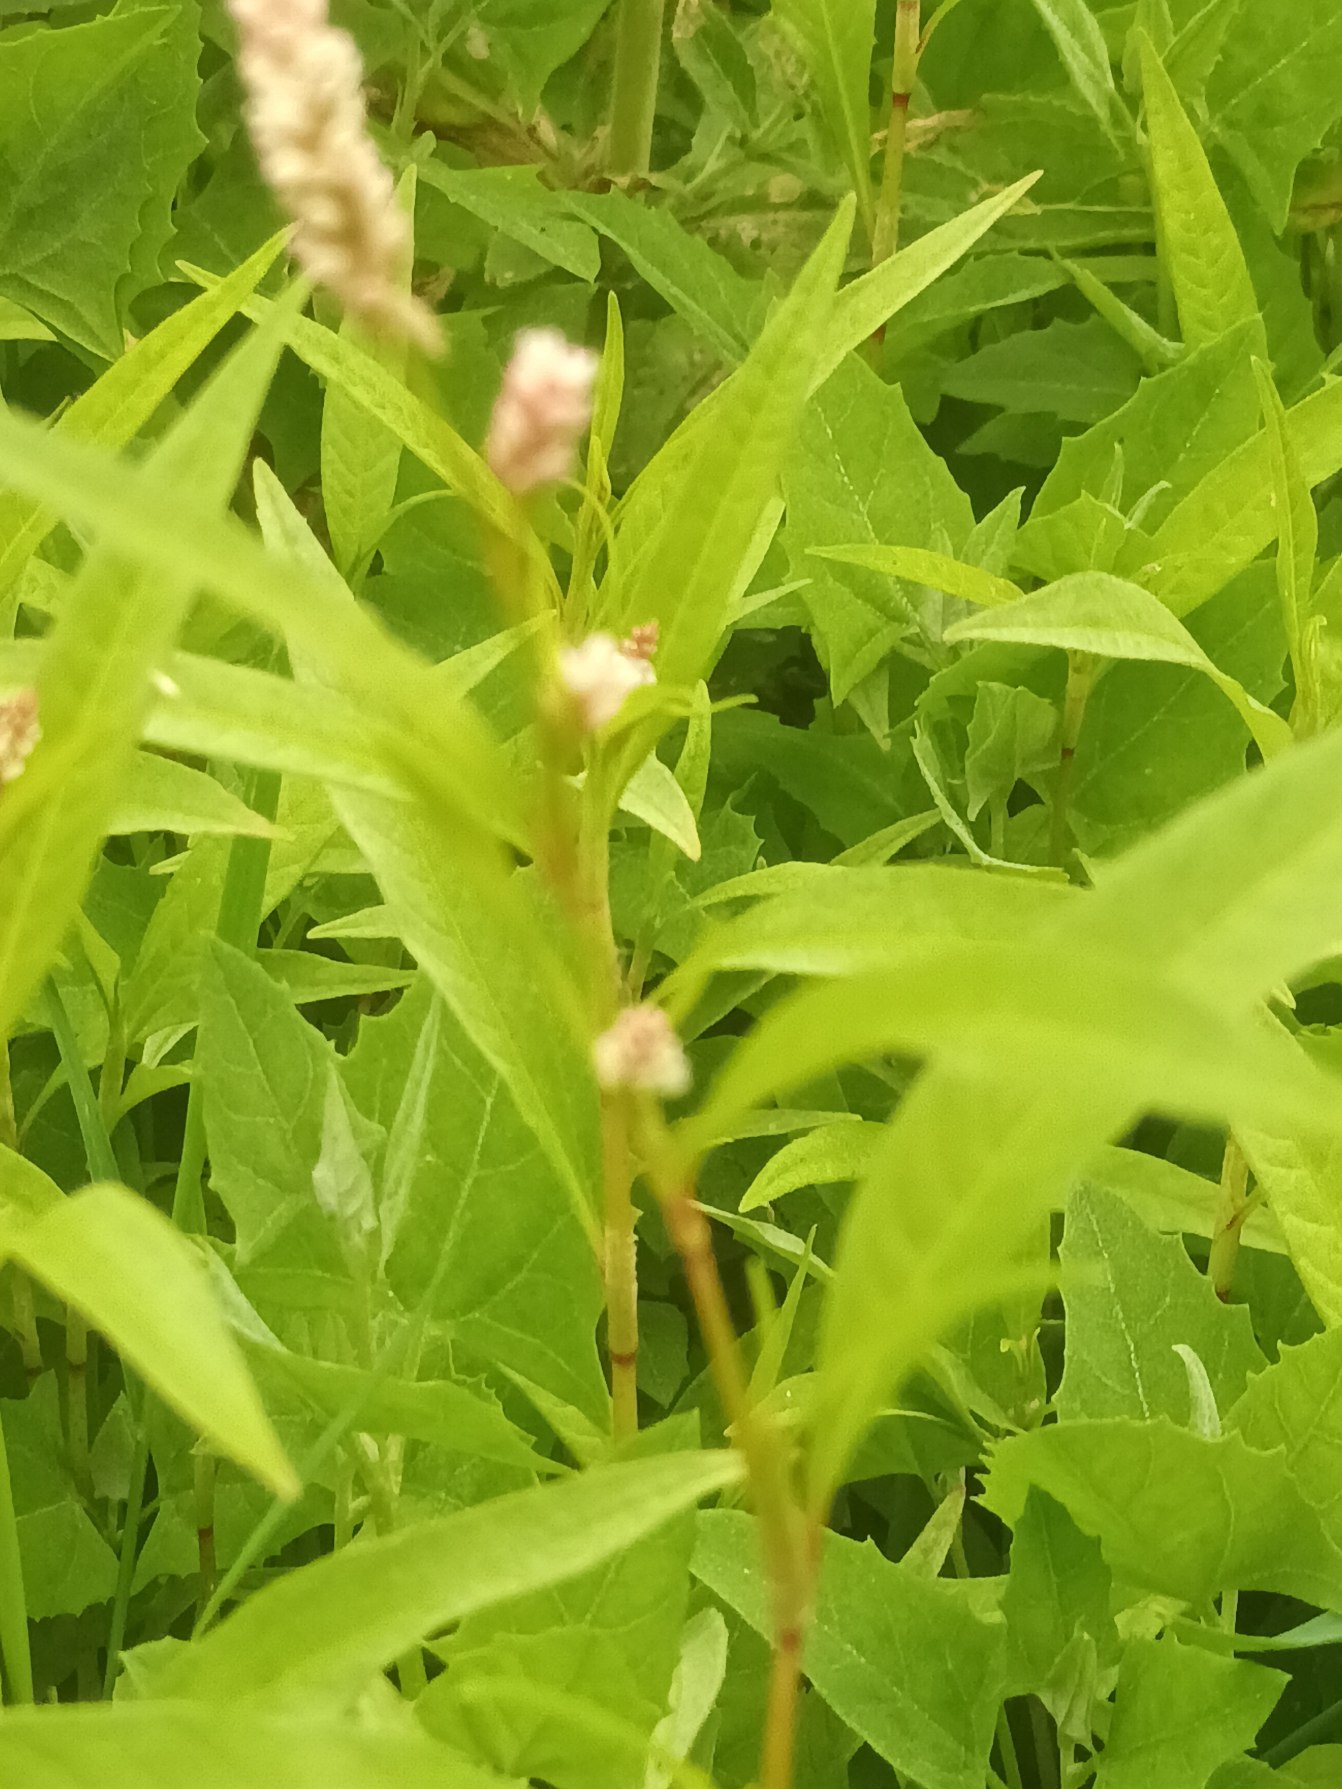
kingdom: Plantae
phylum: Tracheophyta
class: Magnoliopsida
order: Caryophyllales
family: Polygonaceae
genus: Persicaria
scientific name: Persicaria lapathifolia
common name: Bleg pileurt
